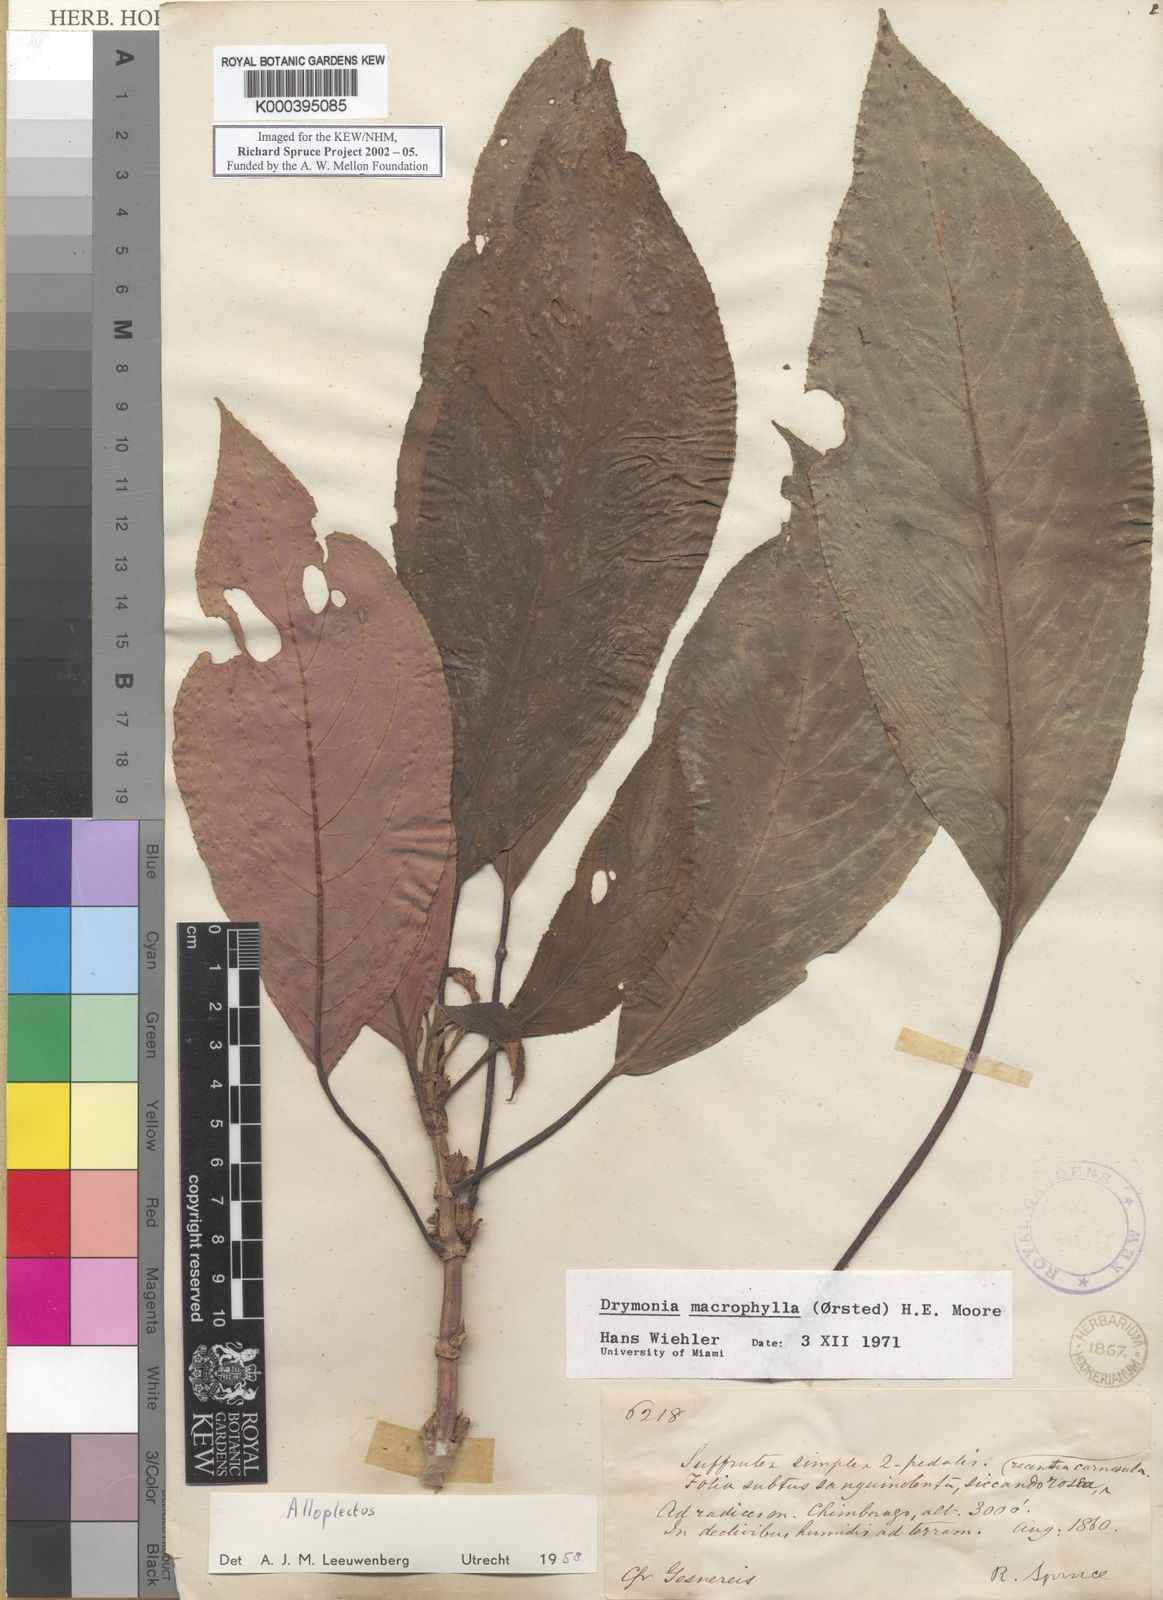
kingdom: Plantae
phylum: Tracheophyta
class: Magnoliopsida
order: Lamiales
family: Gesneriaceae
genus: Drymonia
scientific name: Drymonia macrophylla
